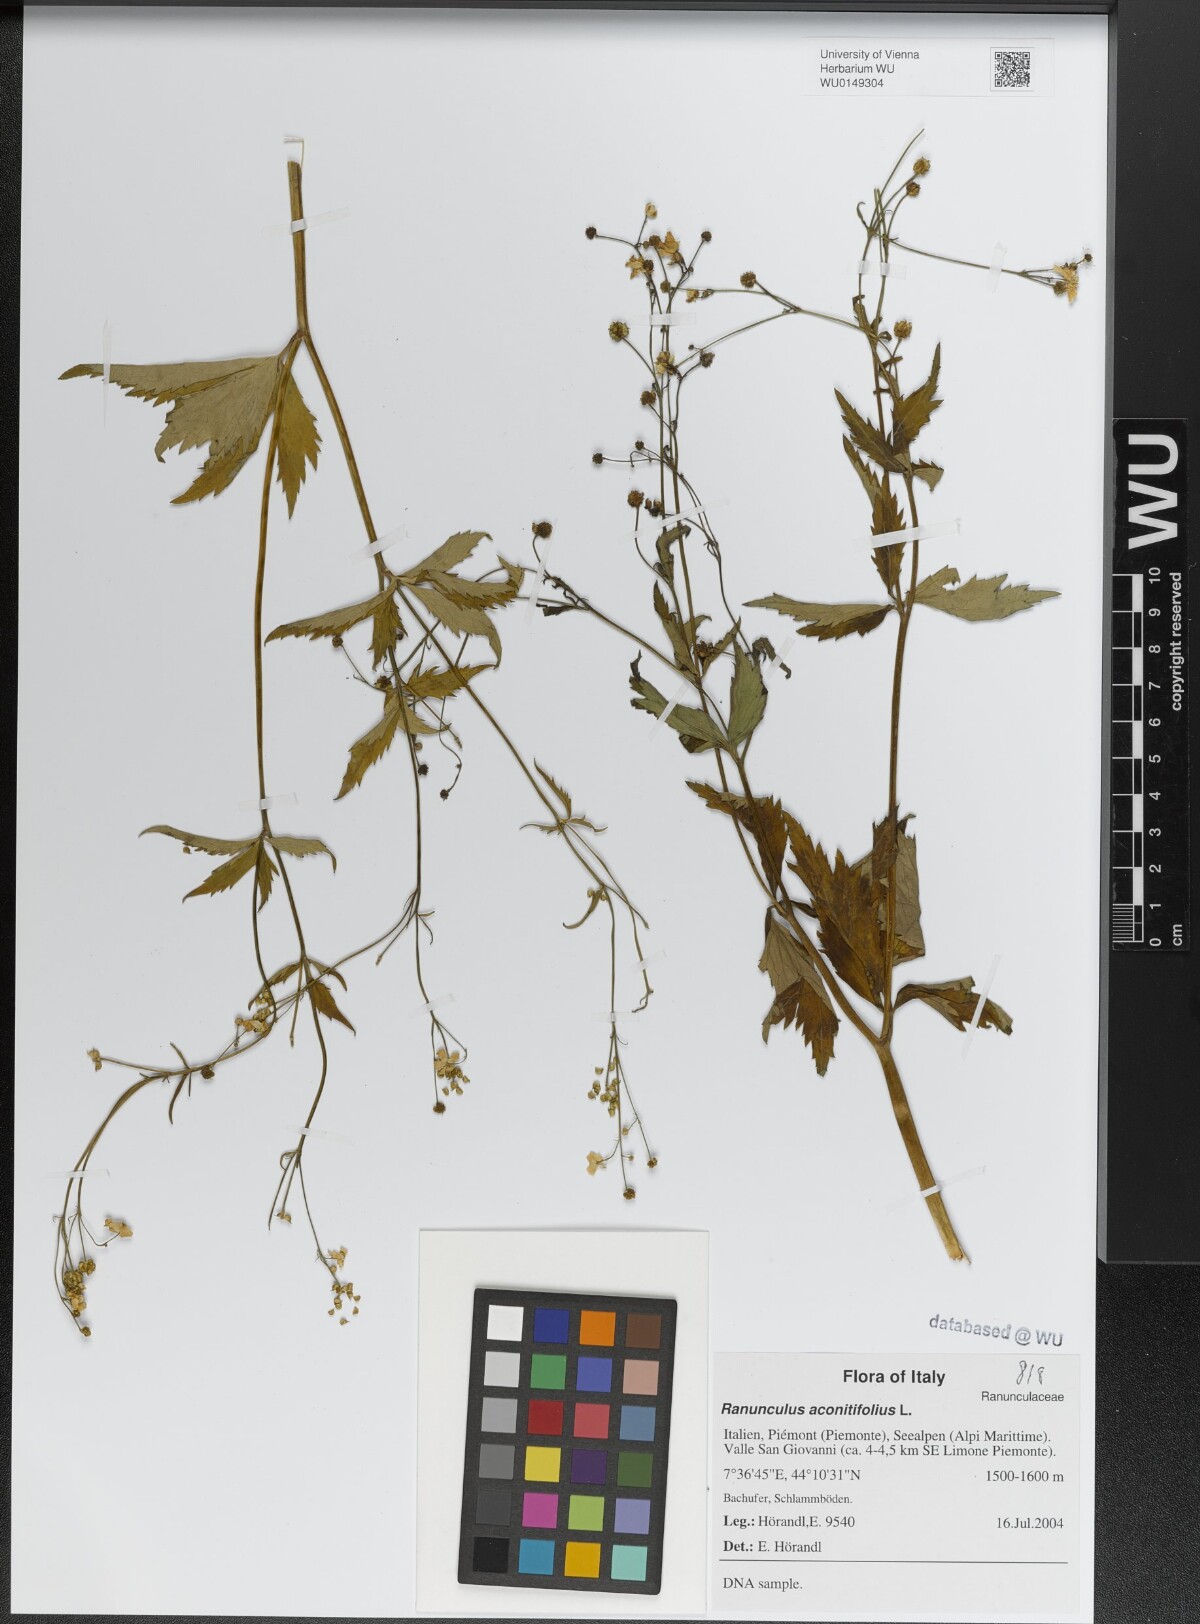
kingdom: Plantae
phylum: Tracheophyta
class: Magnoliopsida
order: Ranunculales
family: Ranunculaceae
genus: Ranunculus
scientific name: Ranunculus aconitifolius
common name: Aconite-leaved buttercup
